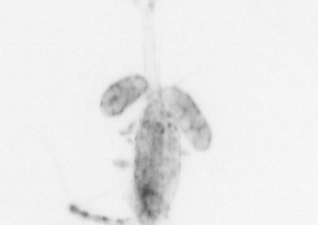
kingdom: Animalia
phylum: Arthropoda
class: Copepoda
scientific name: Copepoda
